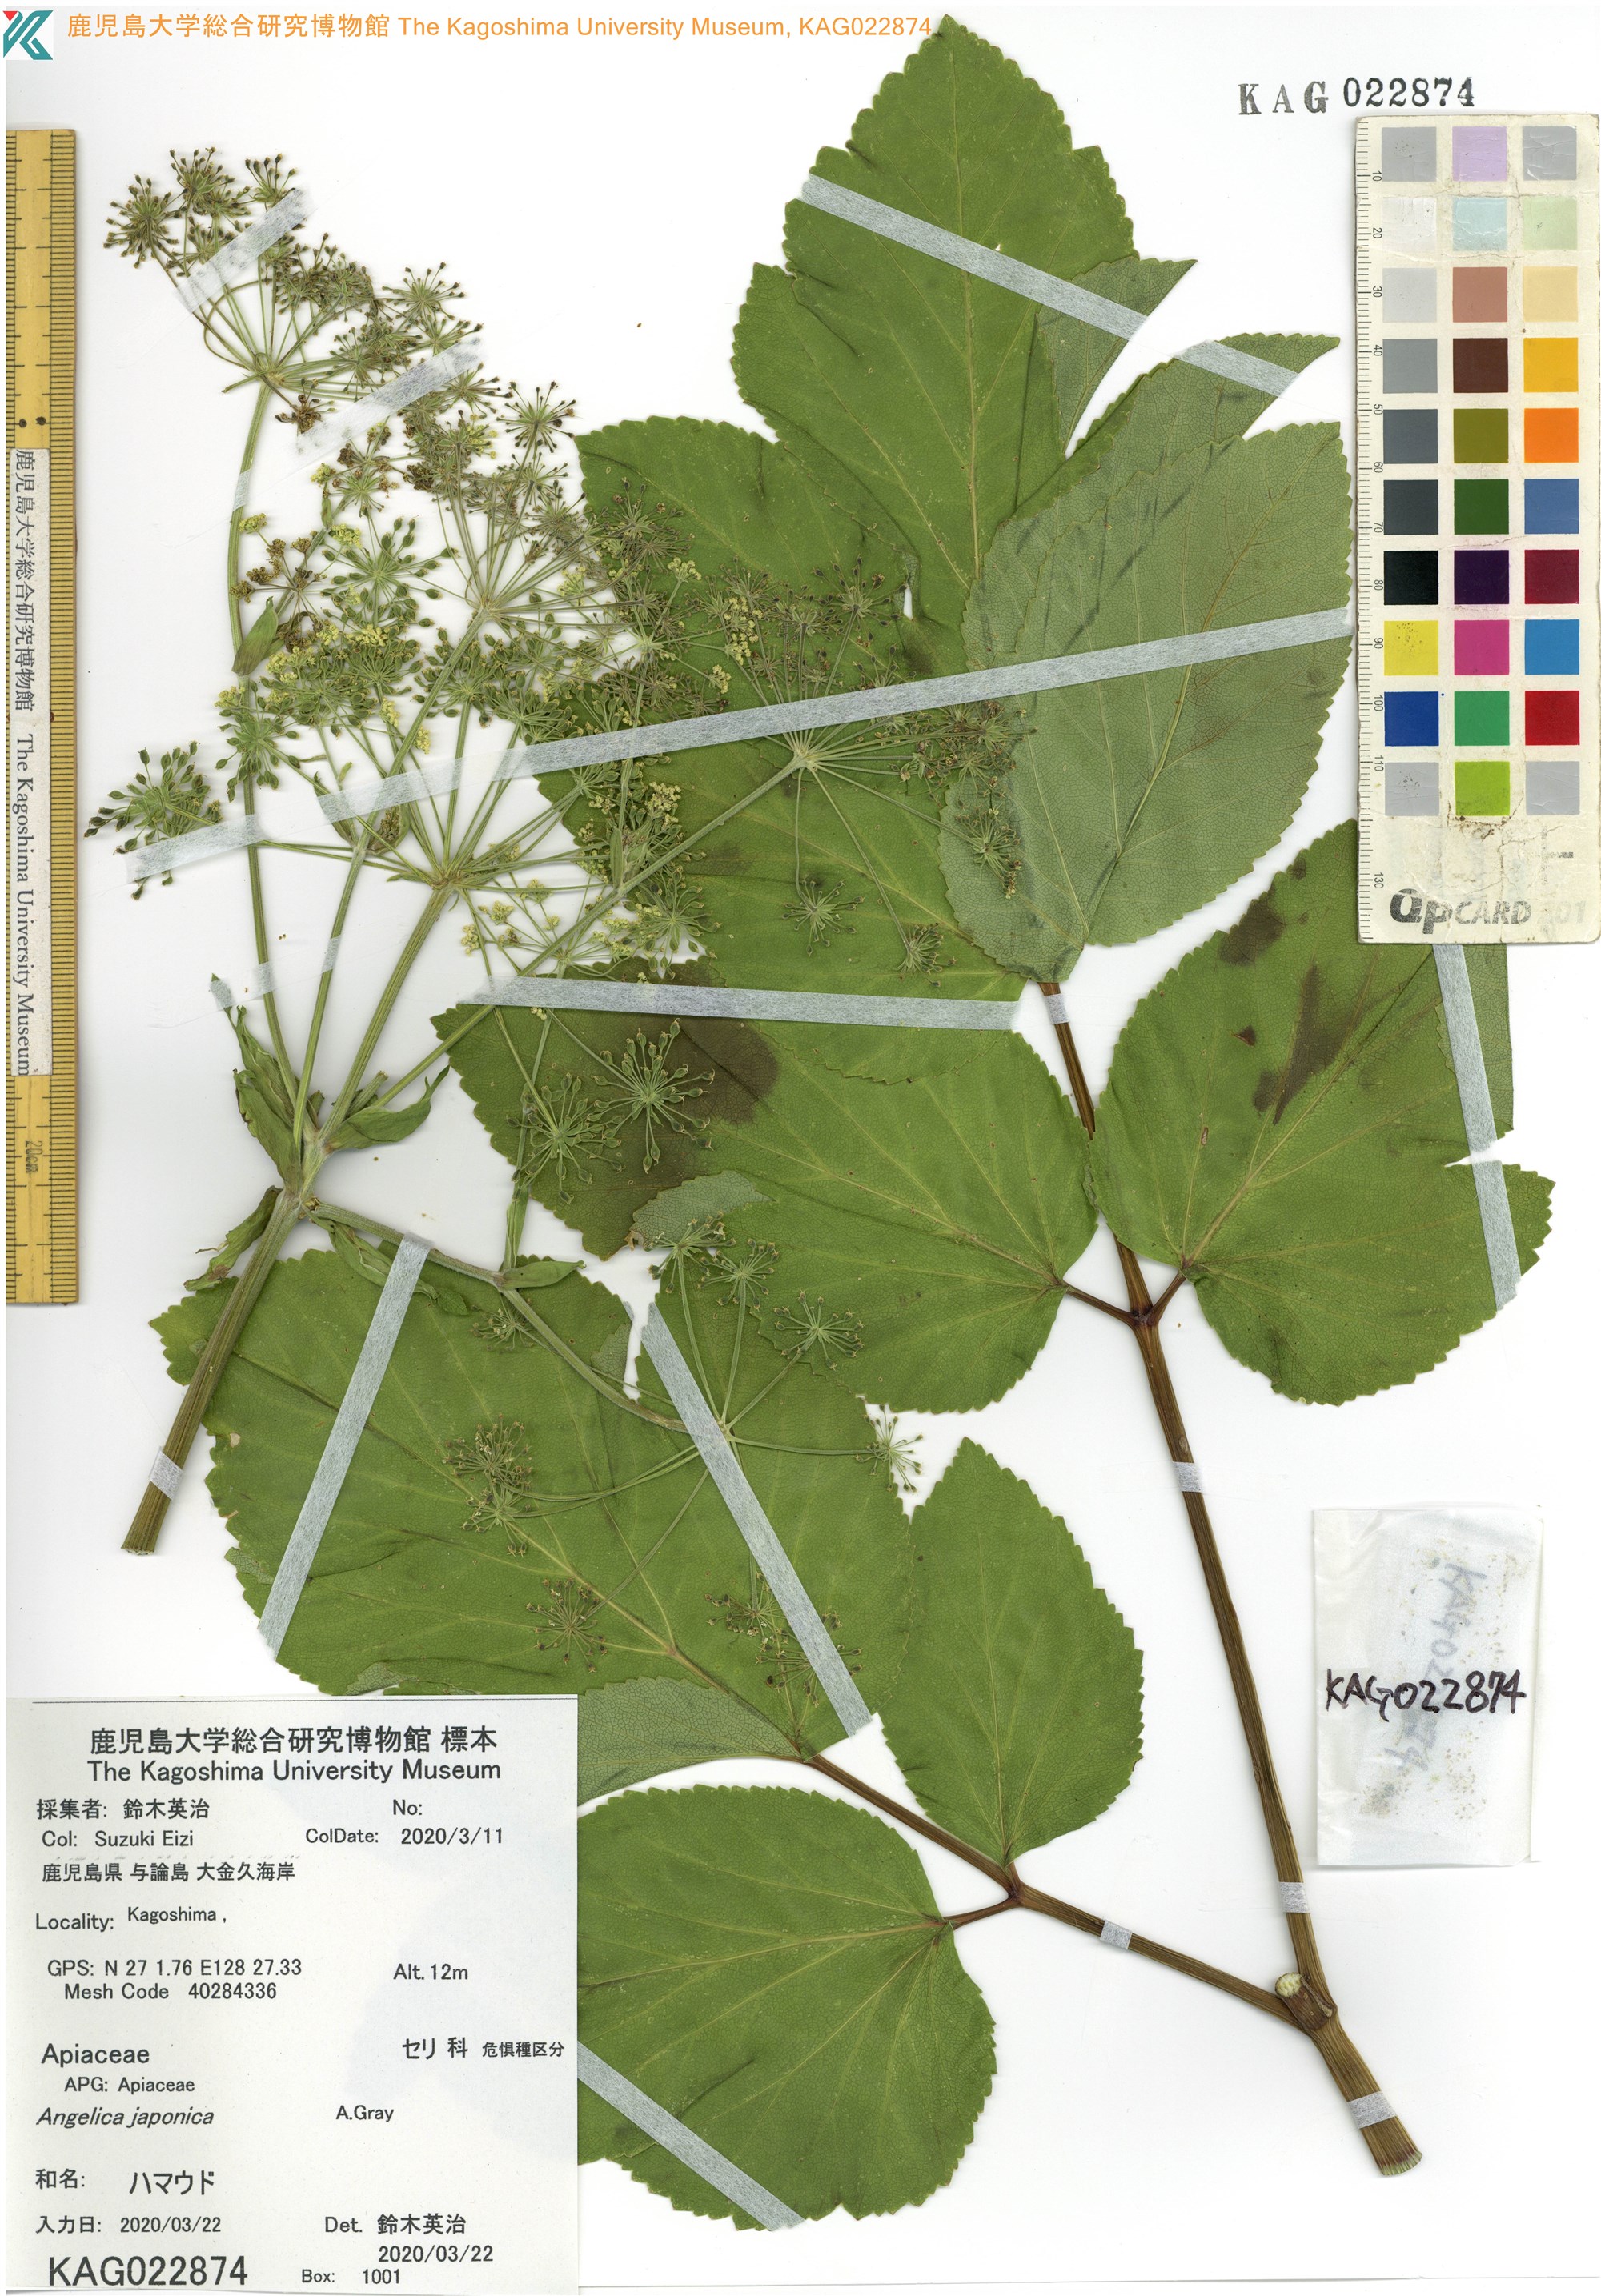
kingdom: Plantae
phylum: Tracheophyta
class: Magnoliopsida
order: Apiales
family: Apiaceae
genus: Angelica
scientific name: Angelica japonica
